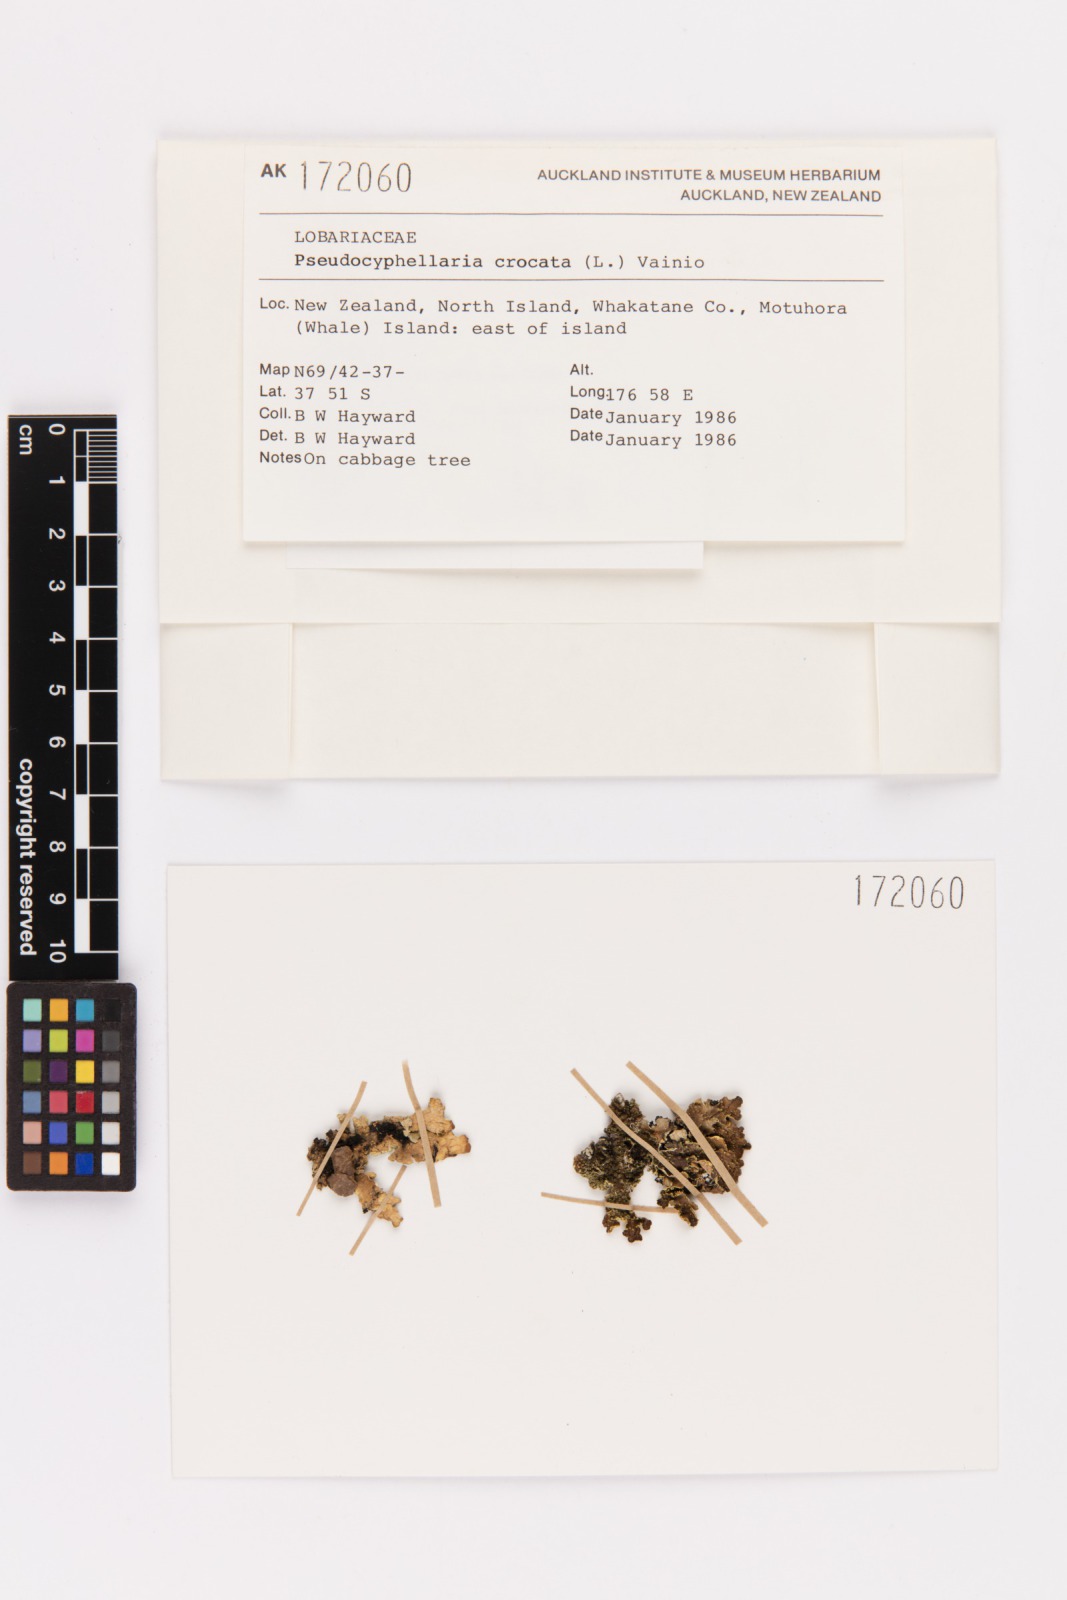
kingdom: Fungi
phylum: Ascomycota
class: Lecanoromycetes
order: Peltigerales
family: Lobariaceae
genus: Pseudocyphellaria
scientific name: Pseudocyphellaria crocata
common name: Golden specklebelly
